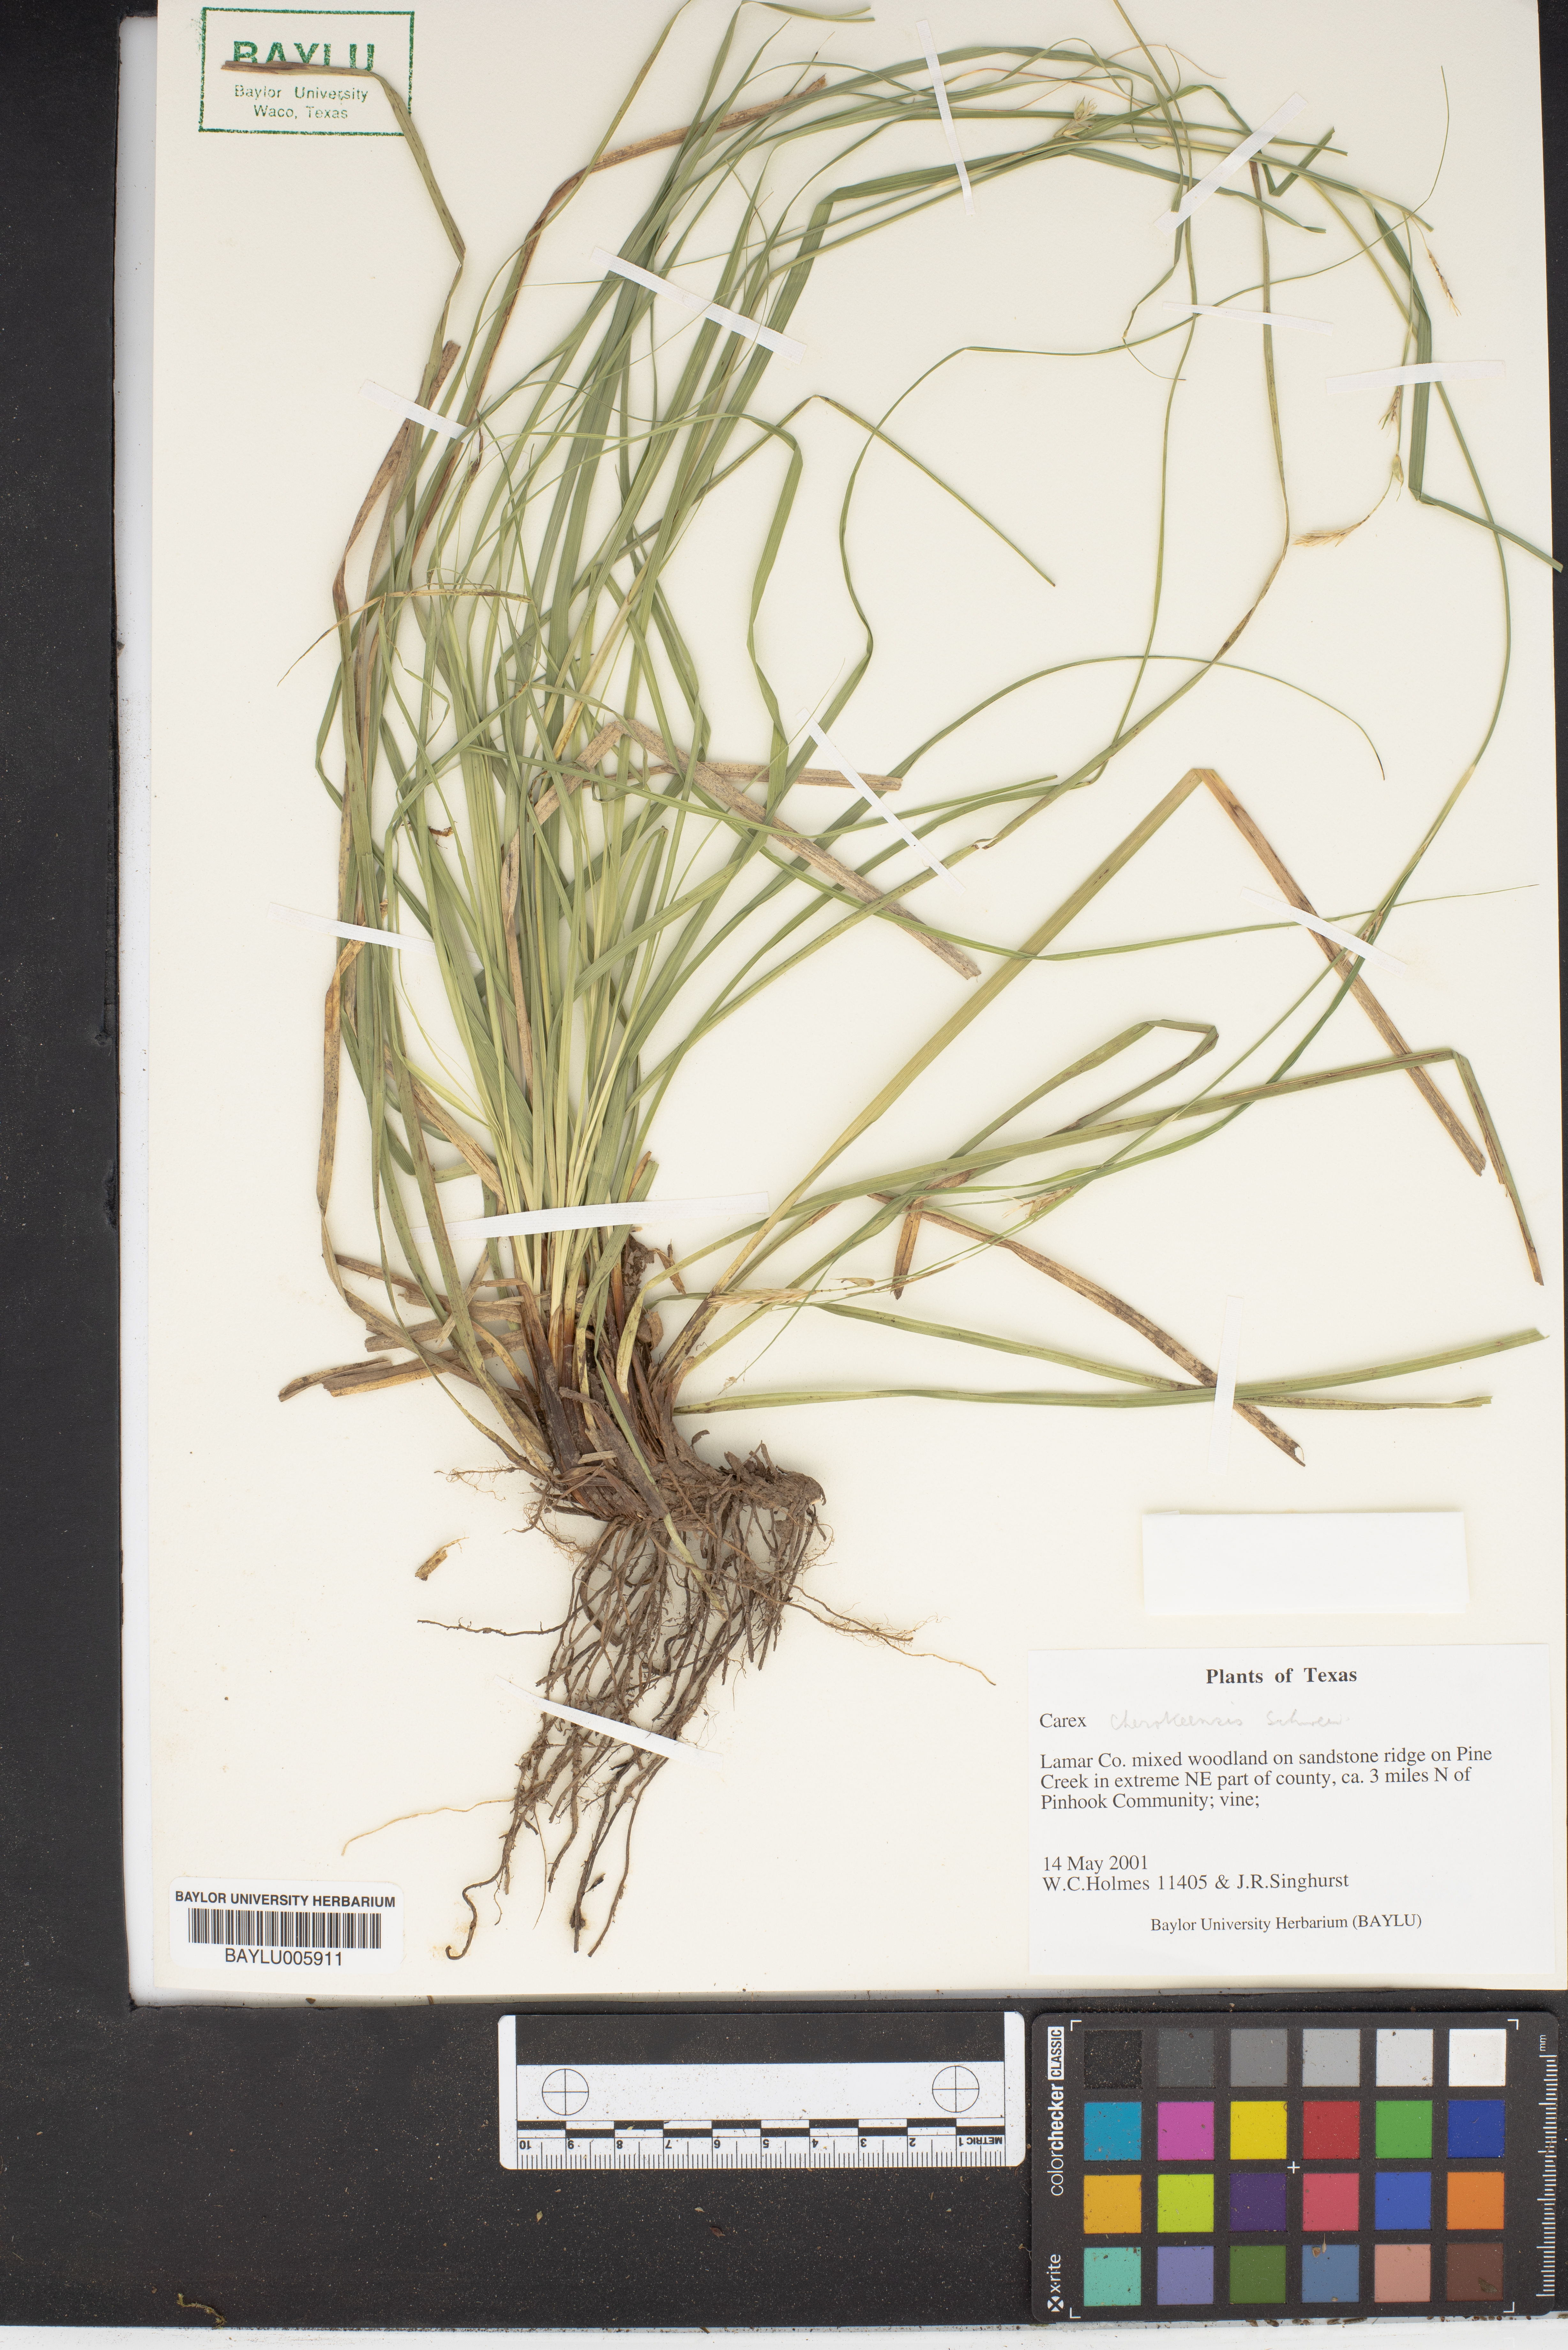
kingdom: Plantae
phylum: Tracheophyta
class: Liliopsida
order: Poales
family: Cyperaceae
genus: Carex
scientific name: Carex cherokeensis
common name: Cherokee sedge
